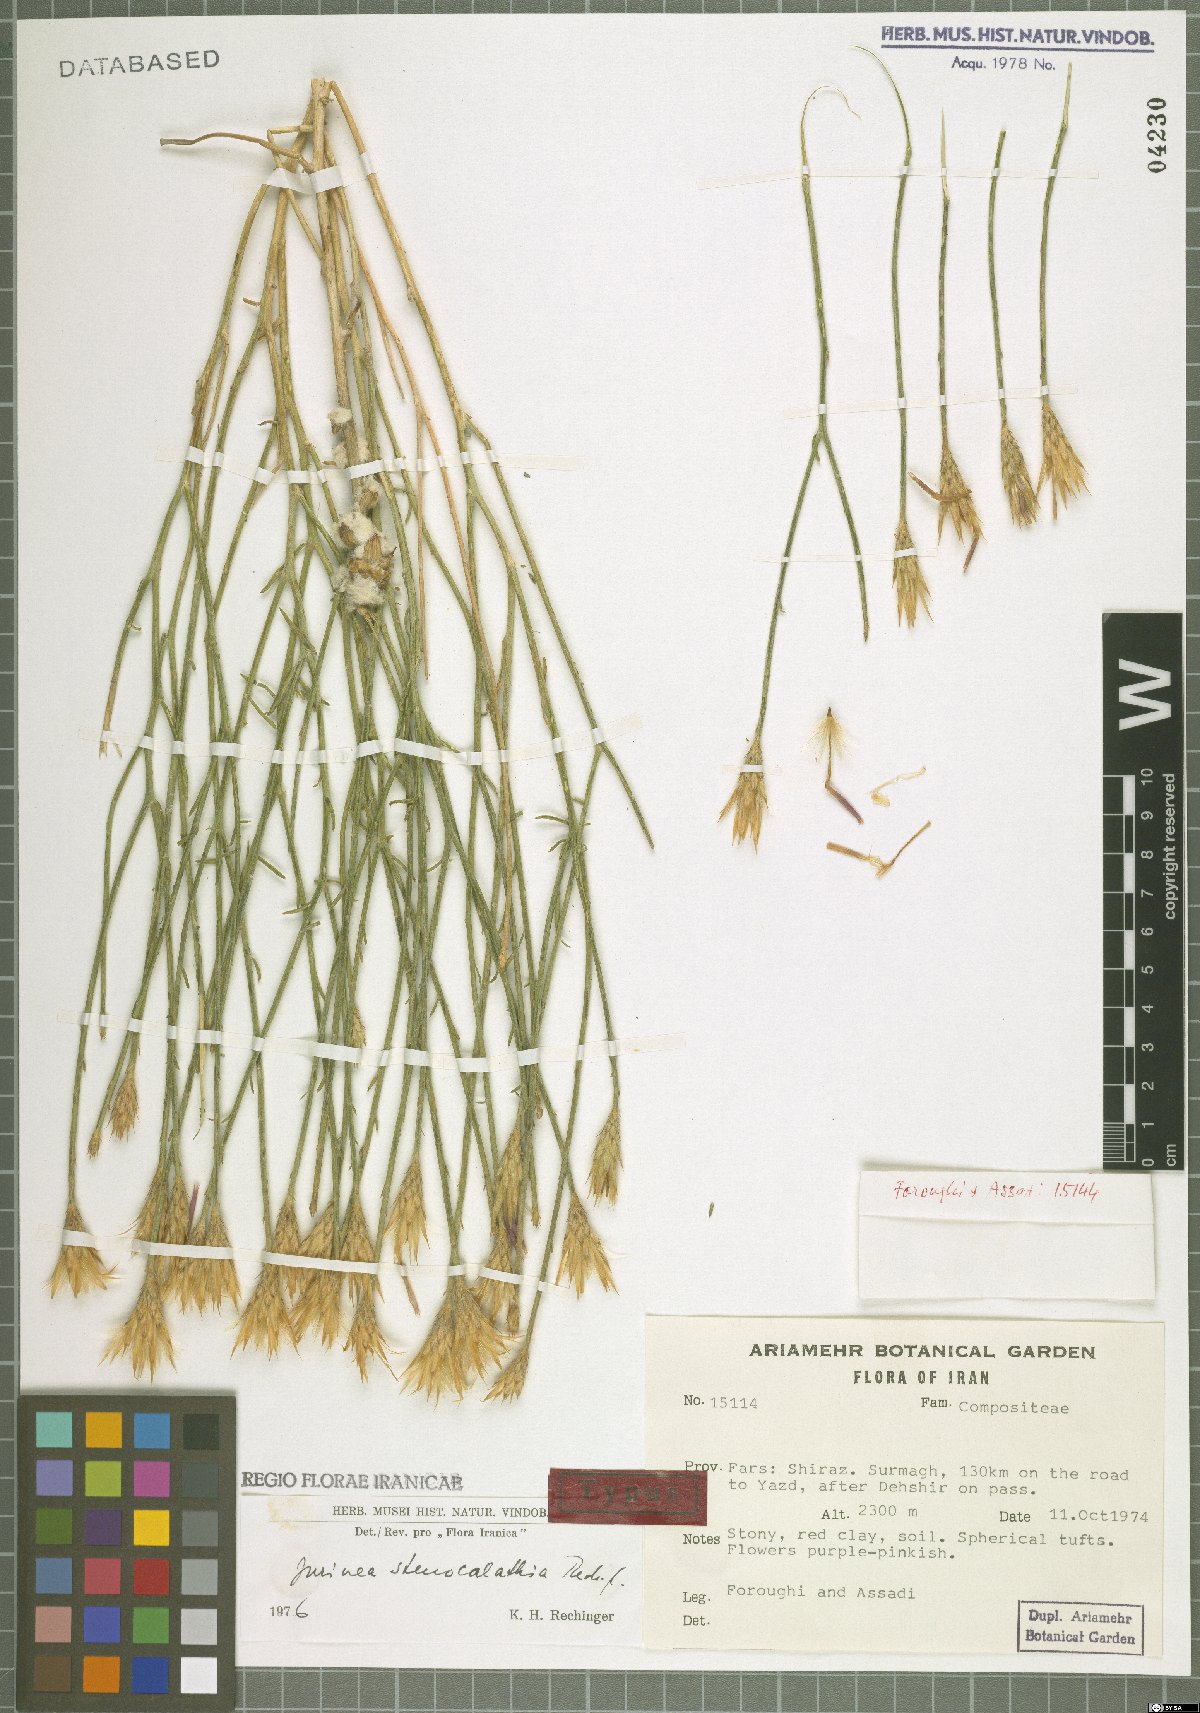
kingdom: Plantae
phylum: Tracheophyta
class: Magnoliopsida
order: Asterales
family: Asteraceae
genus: Jurinea
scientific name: Jurinea stenocalathia
